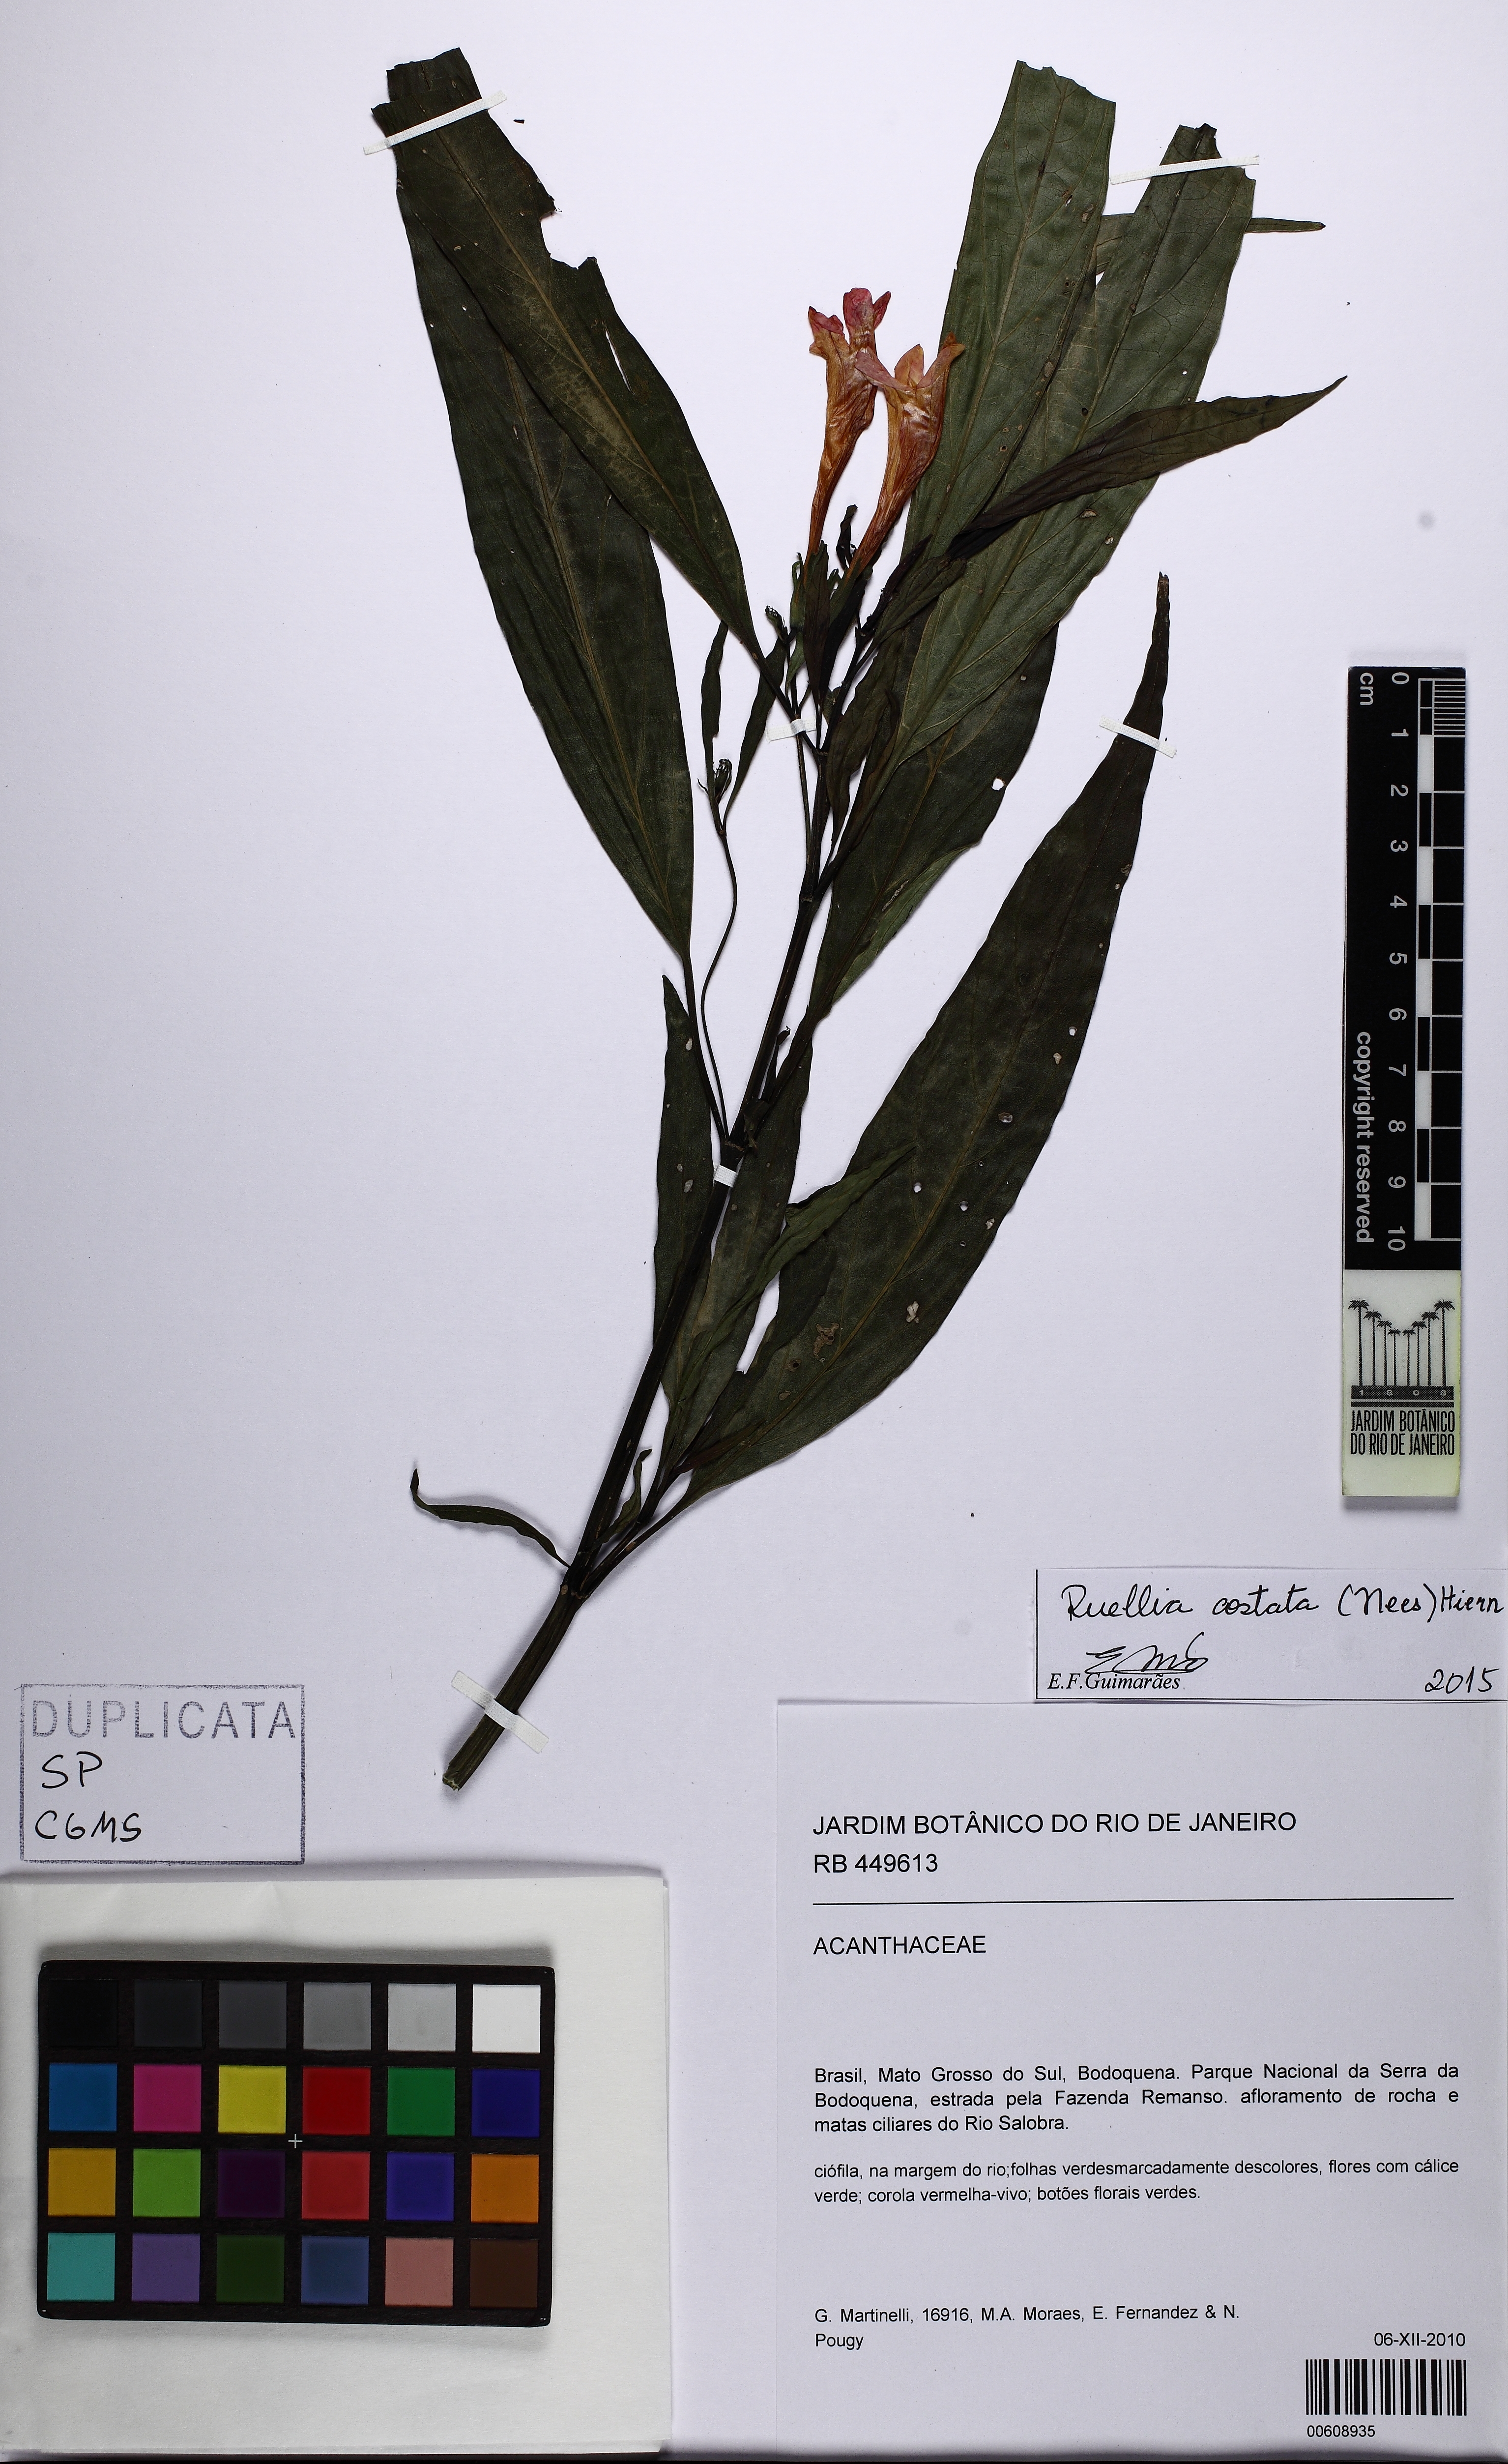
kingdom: Plantae
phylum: Tracheophyta
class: Magnoliopsida
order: Lamiales
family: Acanthaceae
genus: Ruellia
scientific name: Ruellia haenkeana
